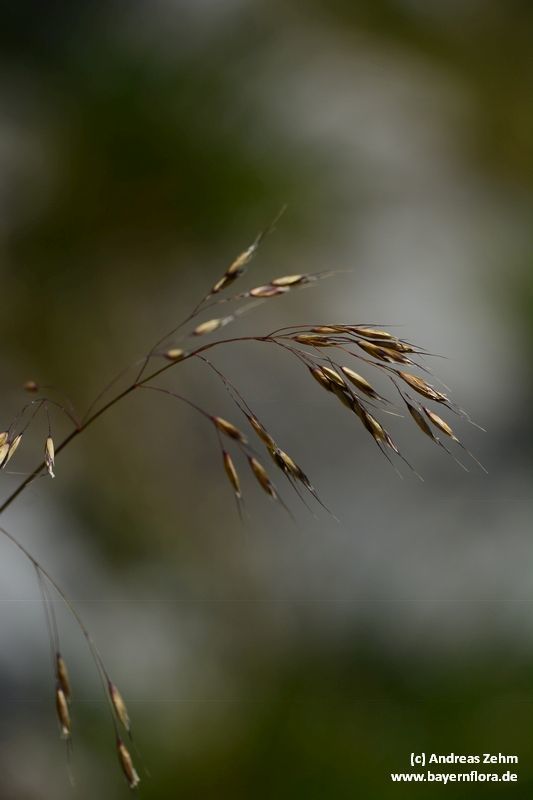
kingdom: Plantae
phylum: Tracheophyta
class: Liliopsida
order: Poales
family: Poaceae
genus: Helictotrichon
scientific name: Helictotrichon parlatorei
